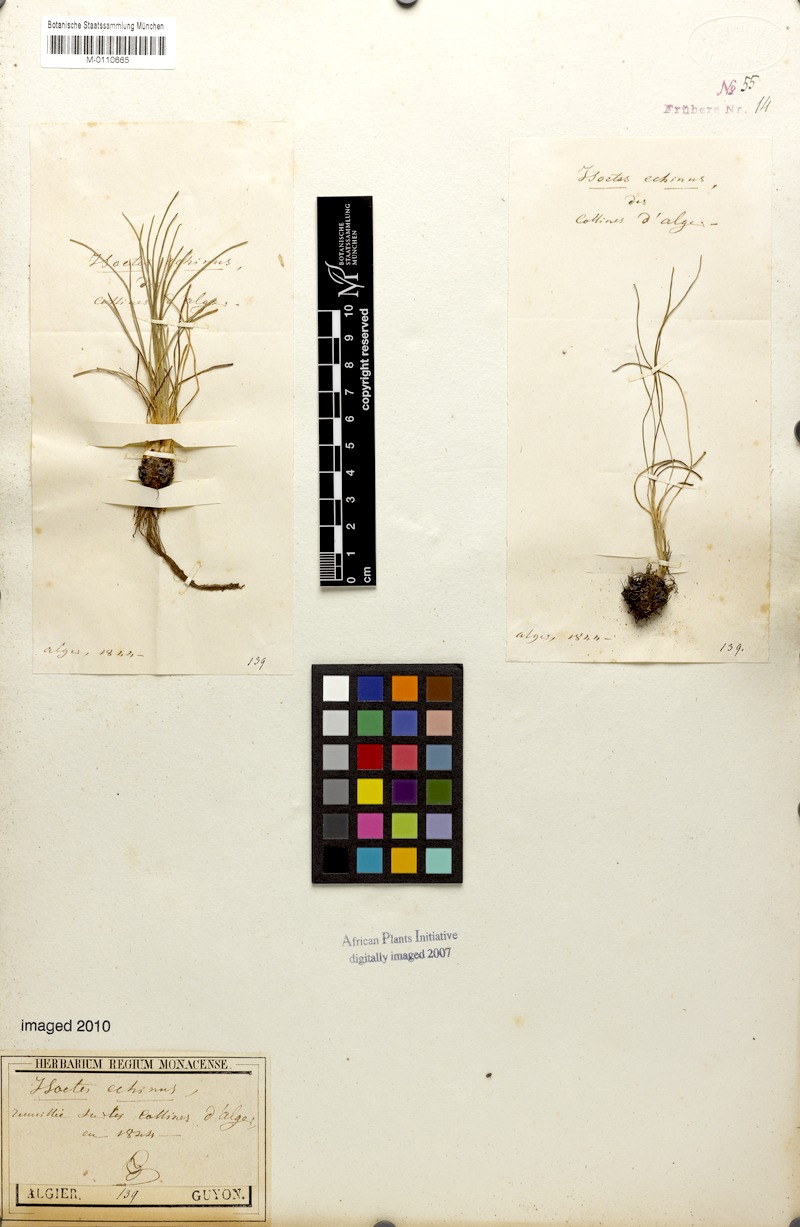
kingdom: Plantae
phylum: Tracheophyta
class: Lycopodiopsida
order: Isoetales
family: Isoetaceae
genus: Isoetes
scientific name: Isoetes
